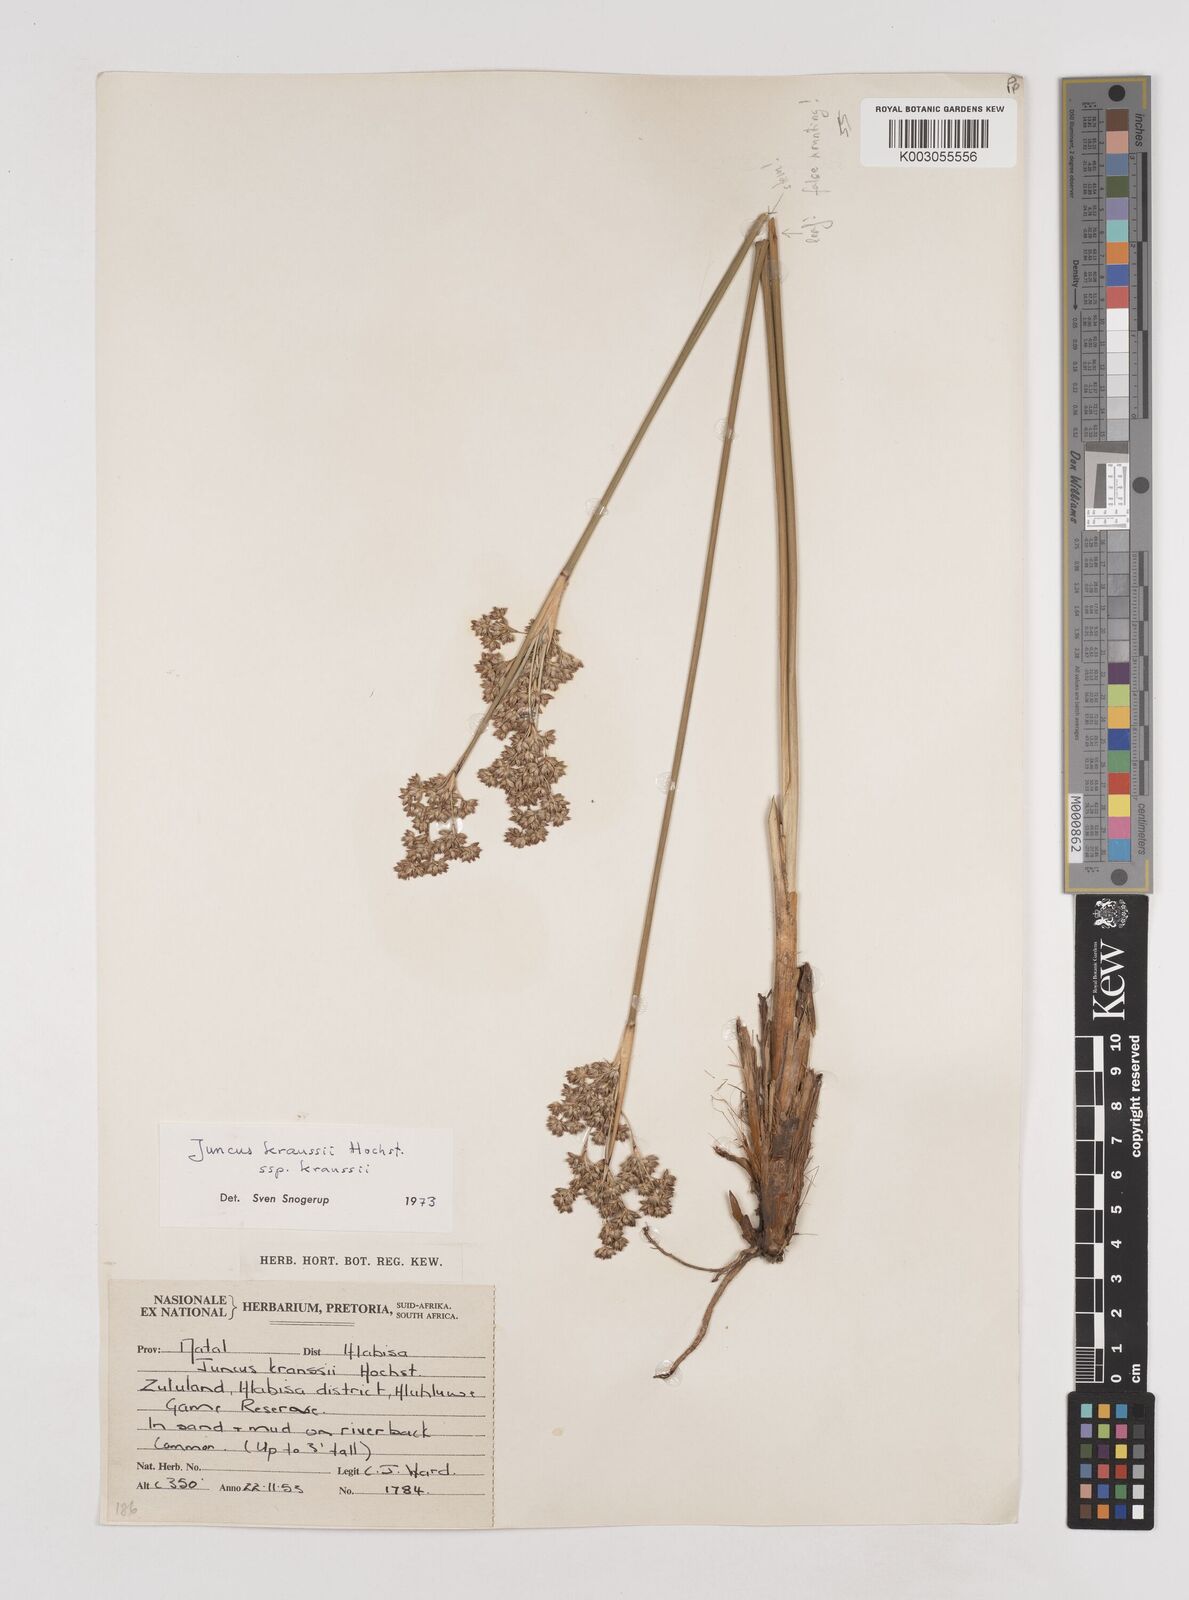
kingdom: Plantae
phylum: Tracheophyta
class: Liliopsida
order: Poales
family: Juncaceae
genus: Juncus
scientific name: Juncus kraussii
